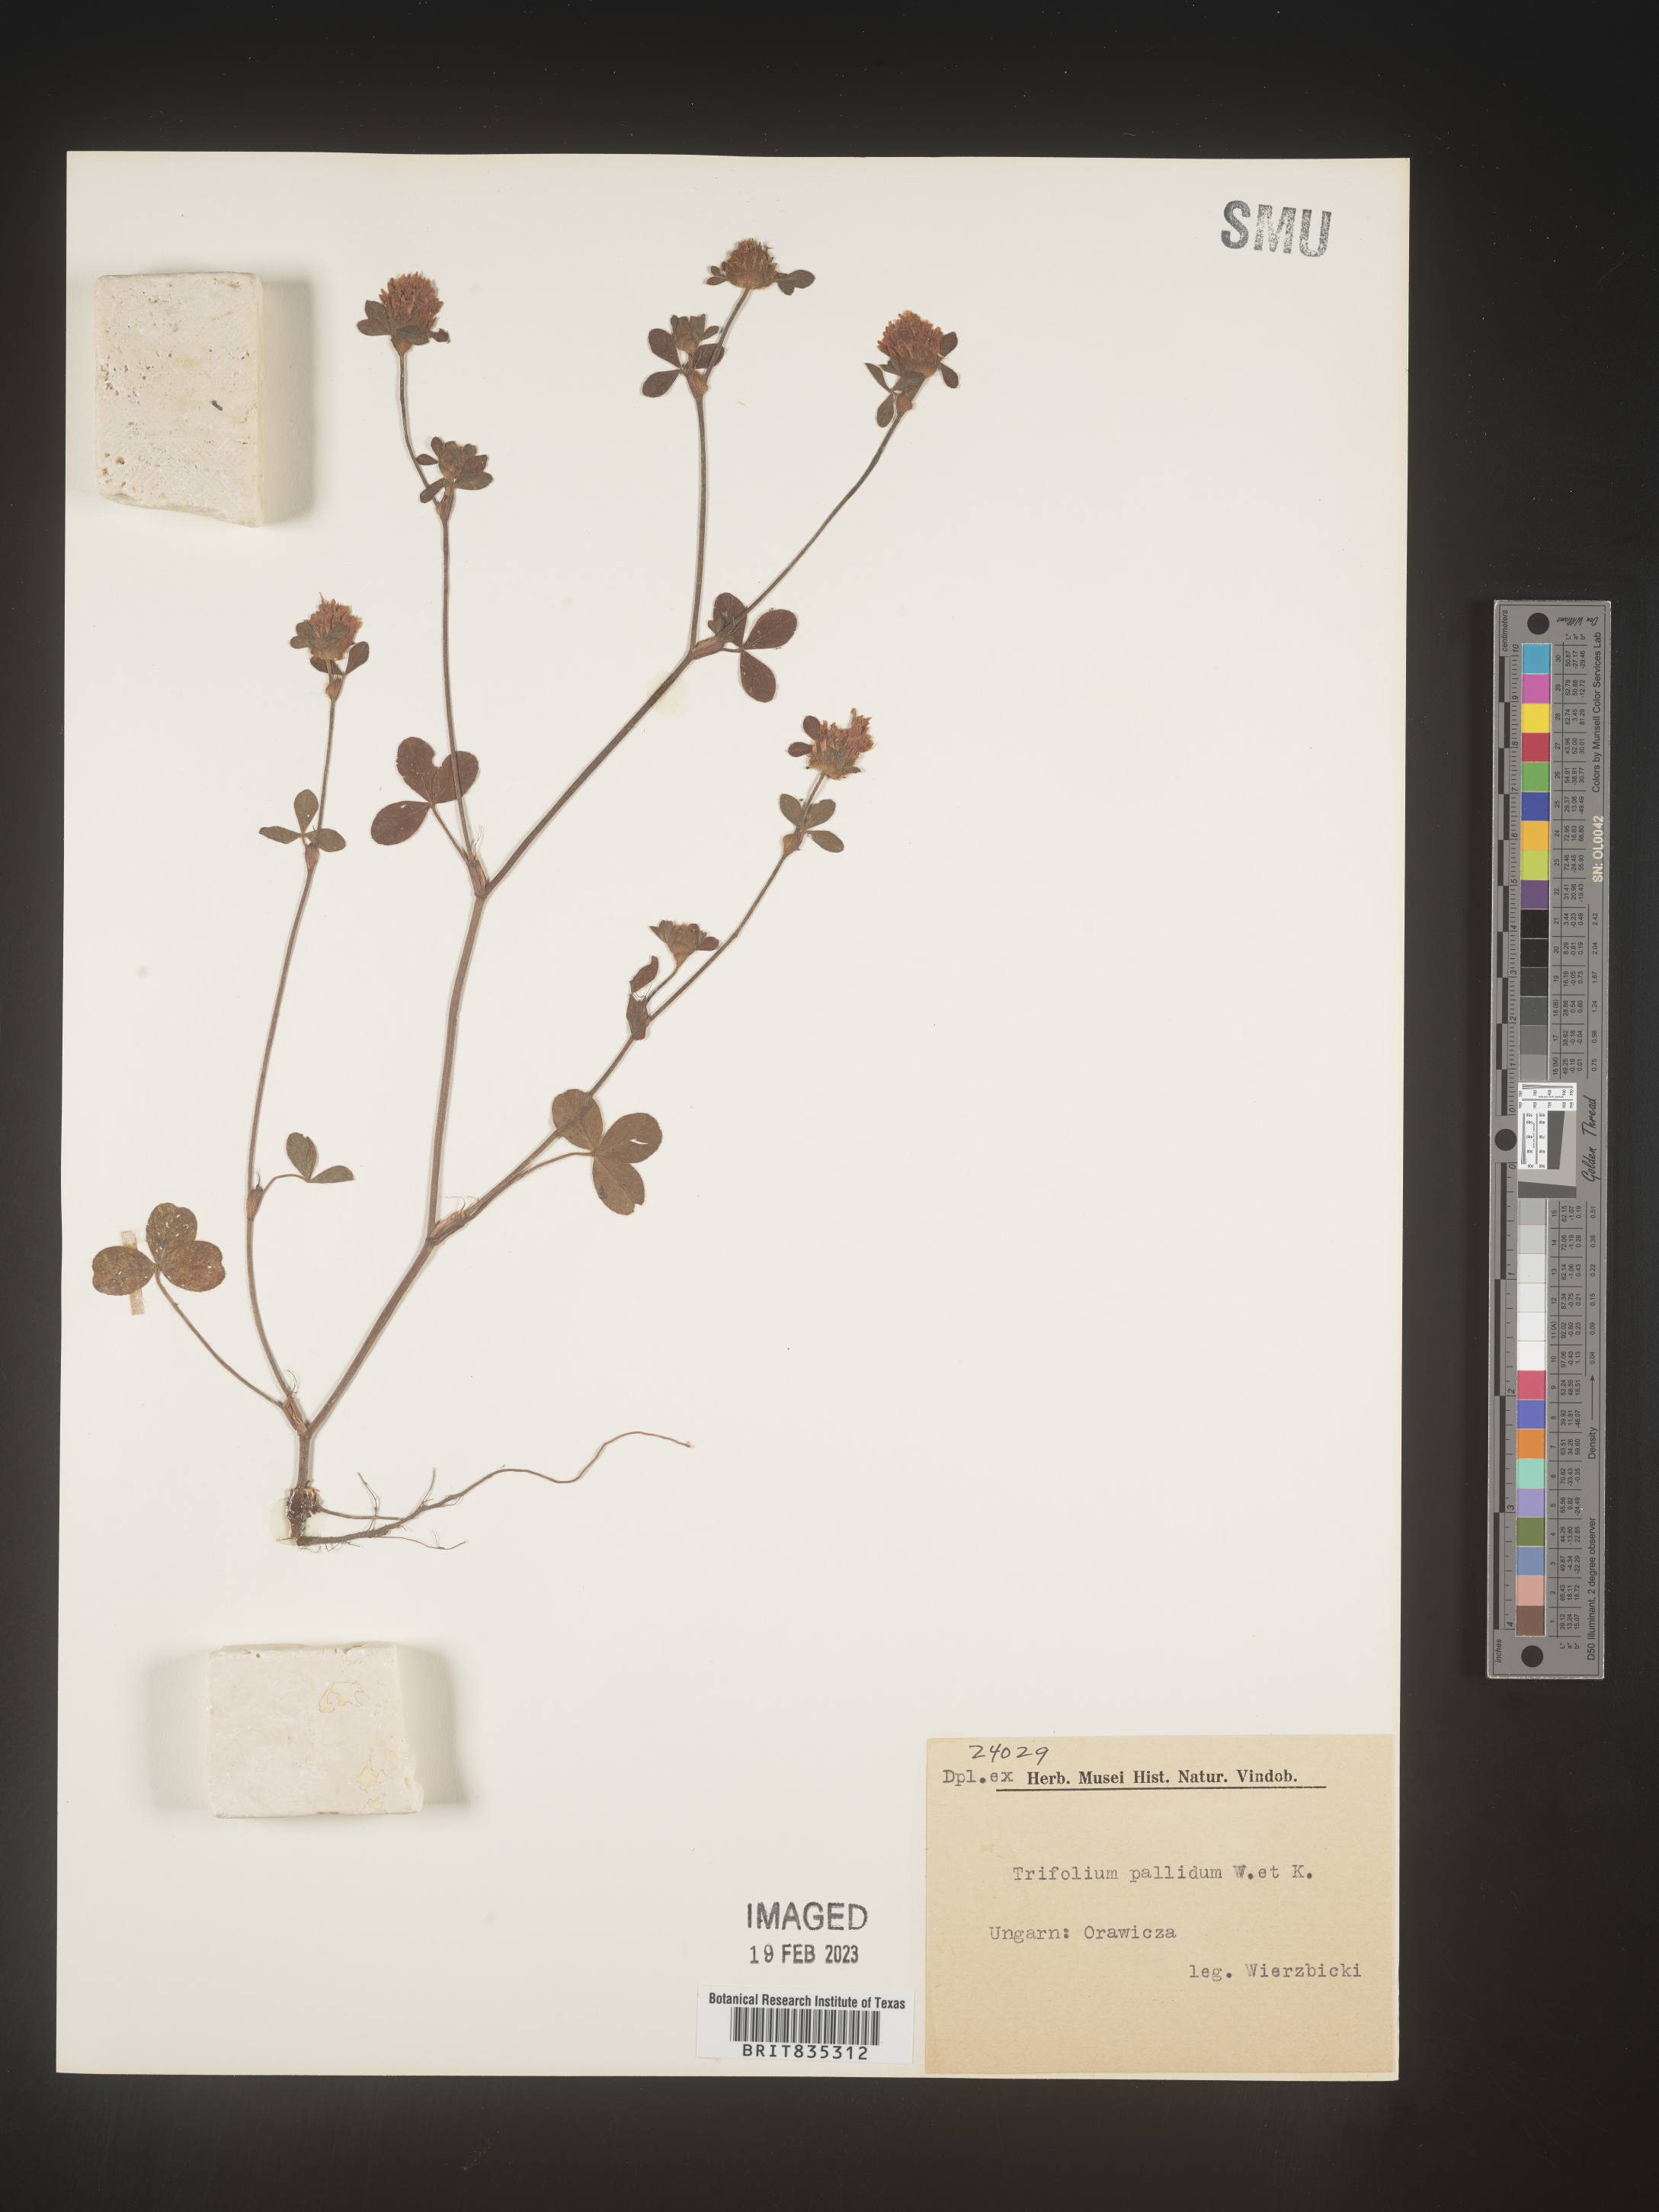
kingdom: Plantae
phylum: Tracheophyta
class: Magnoliopsida
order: Fabales
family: Fabaceae
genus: Trifolium
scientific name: Trifolium
